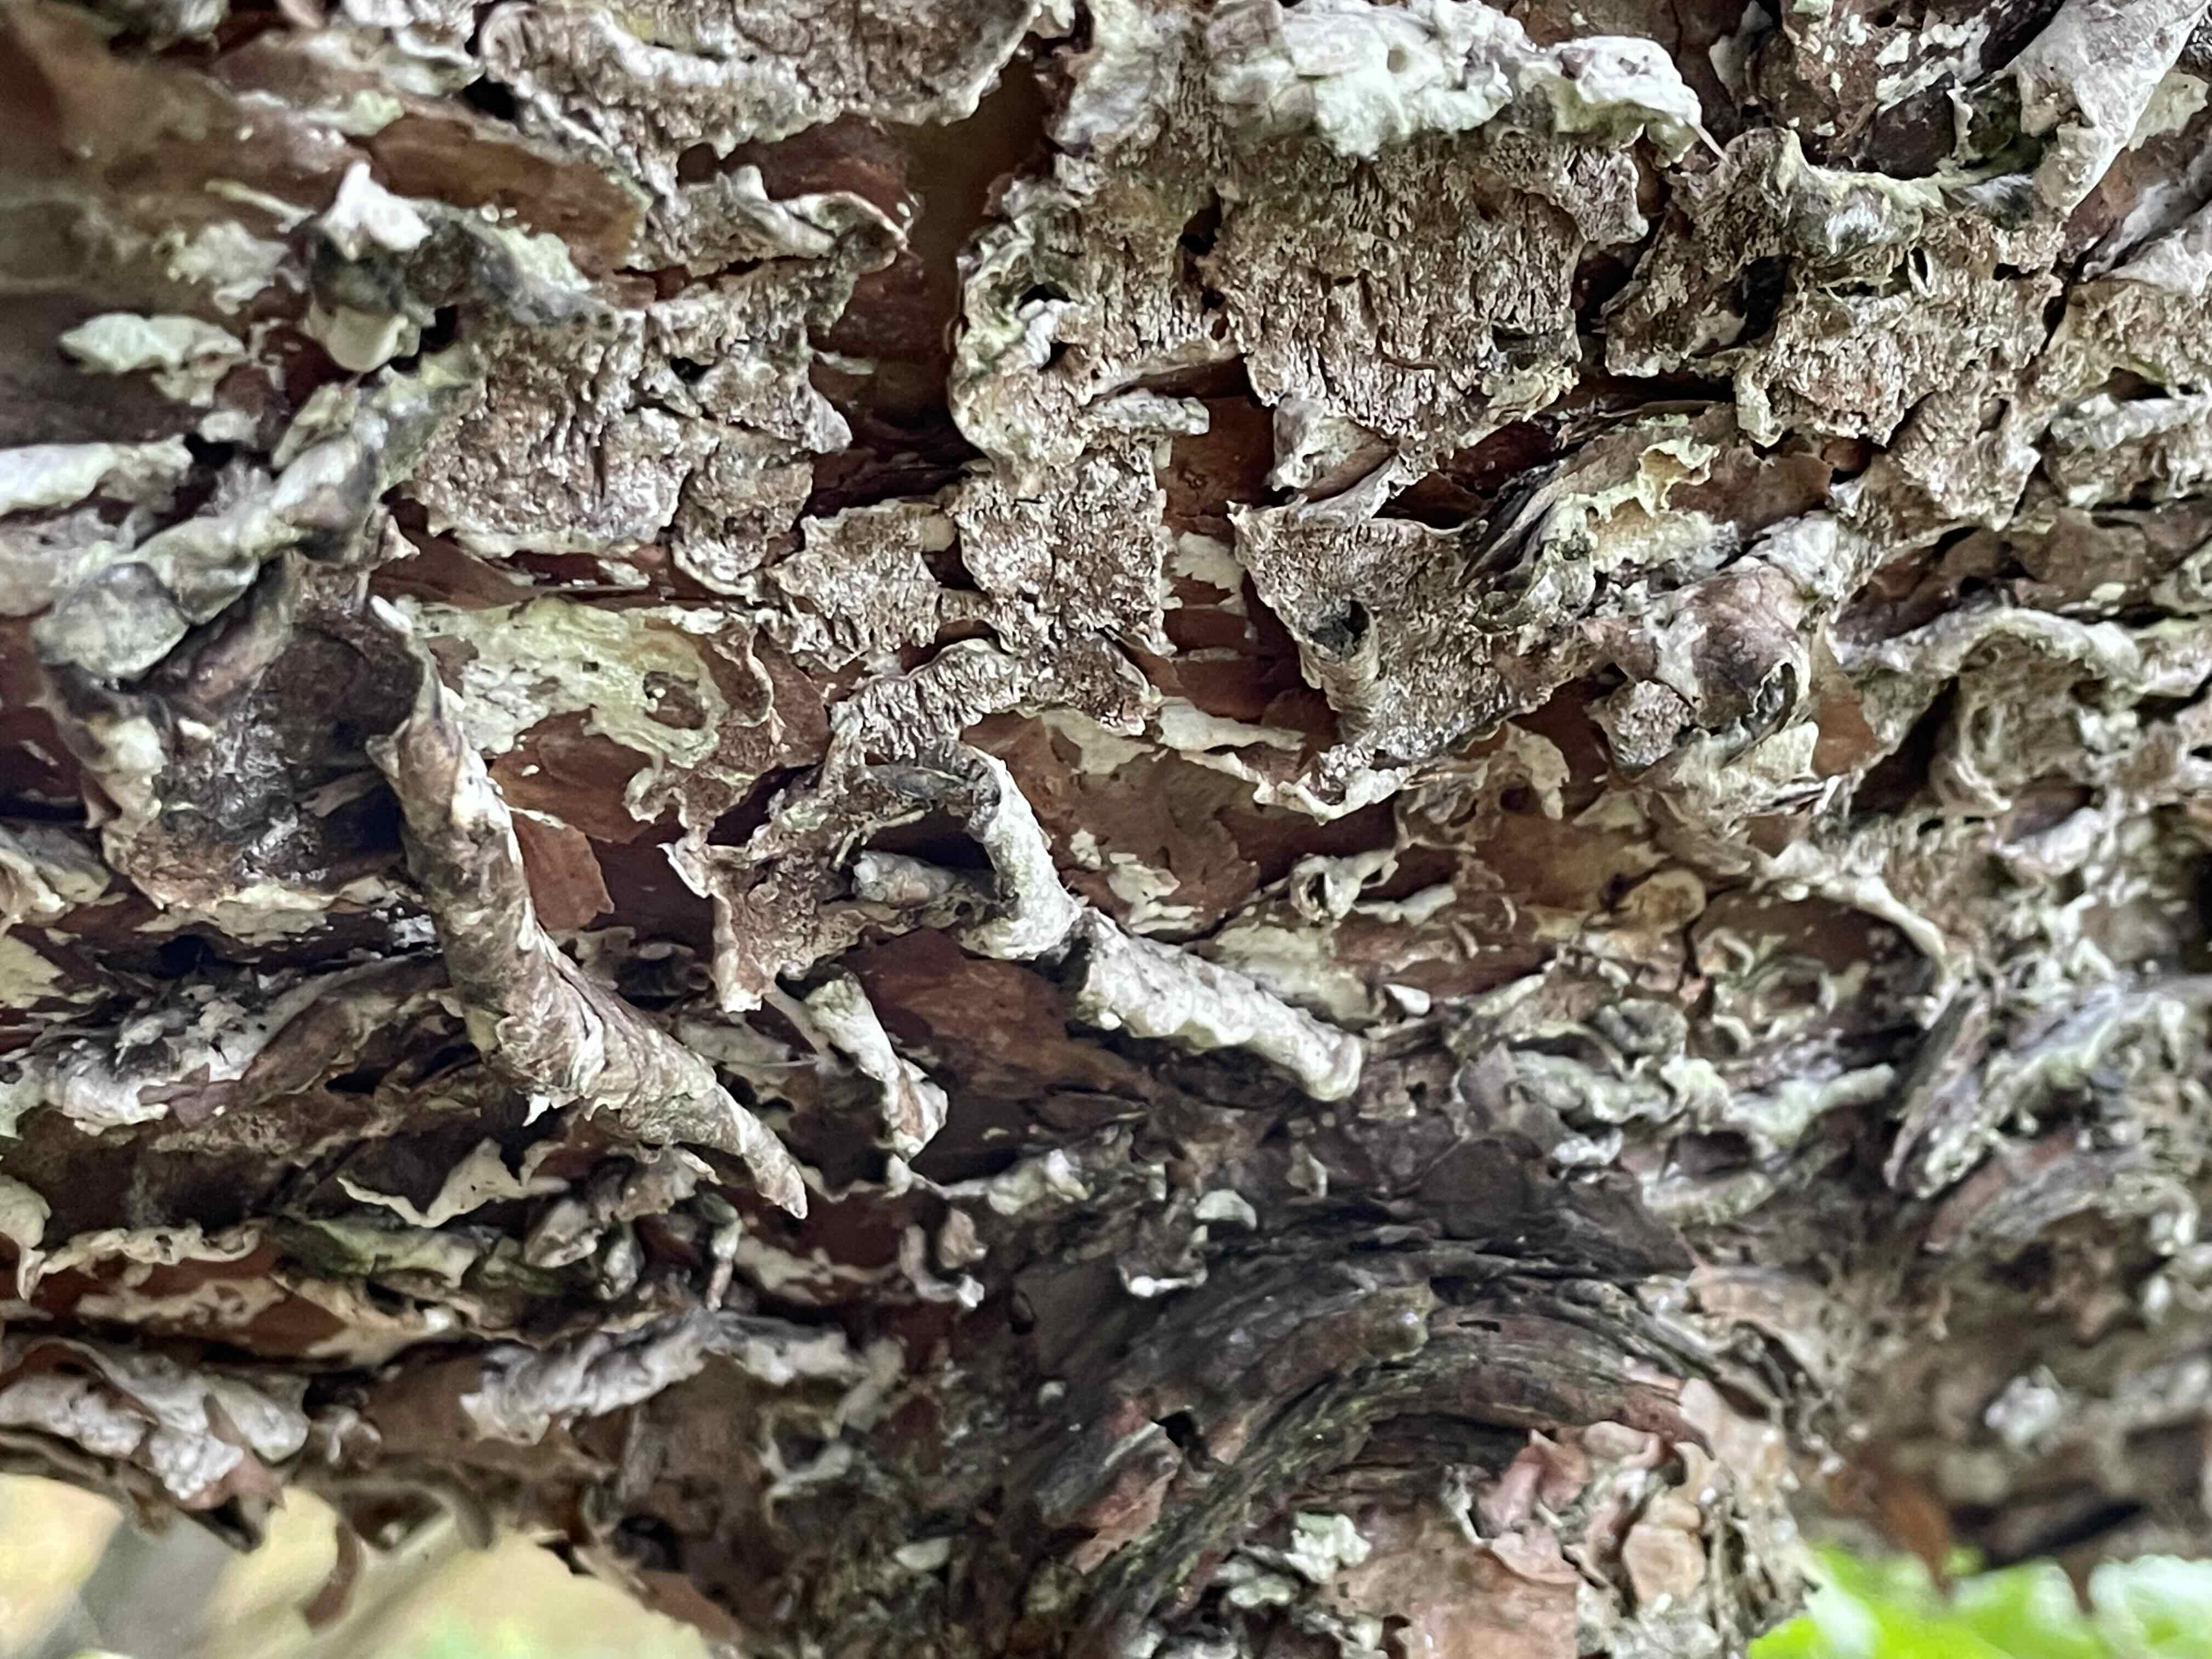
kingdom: Fungi
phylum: Basidiomycota
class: Agaricomycetes
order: Polyporales
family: Polyporaceae
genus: Trichaptum
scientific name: Trichaptum
